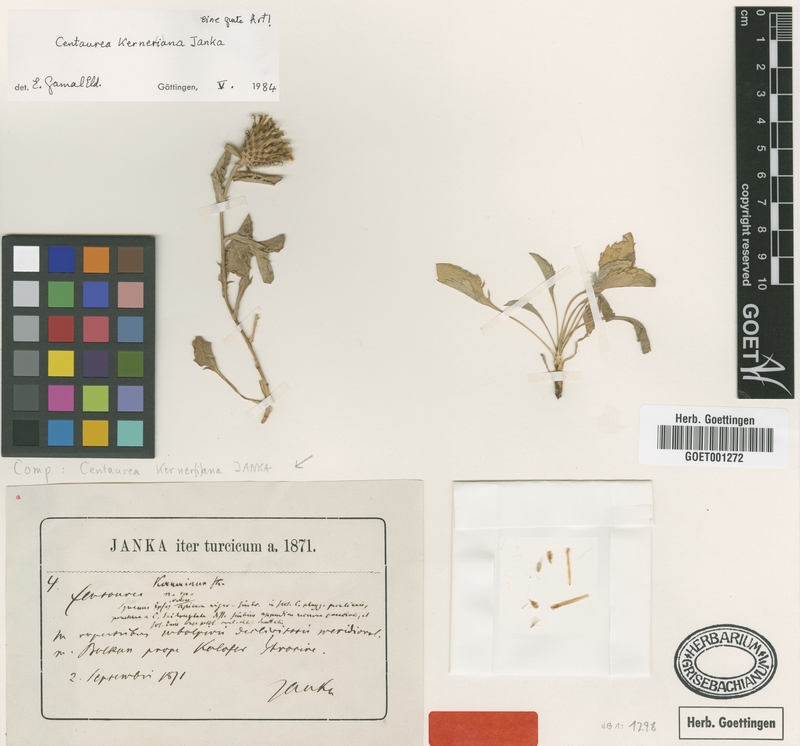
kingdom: Plantae
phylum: Tracheophyta
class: Magnoliopsida
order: Asterales
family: Asteraceae
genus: Centaurea
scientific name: Centaurea kerneriana
